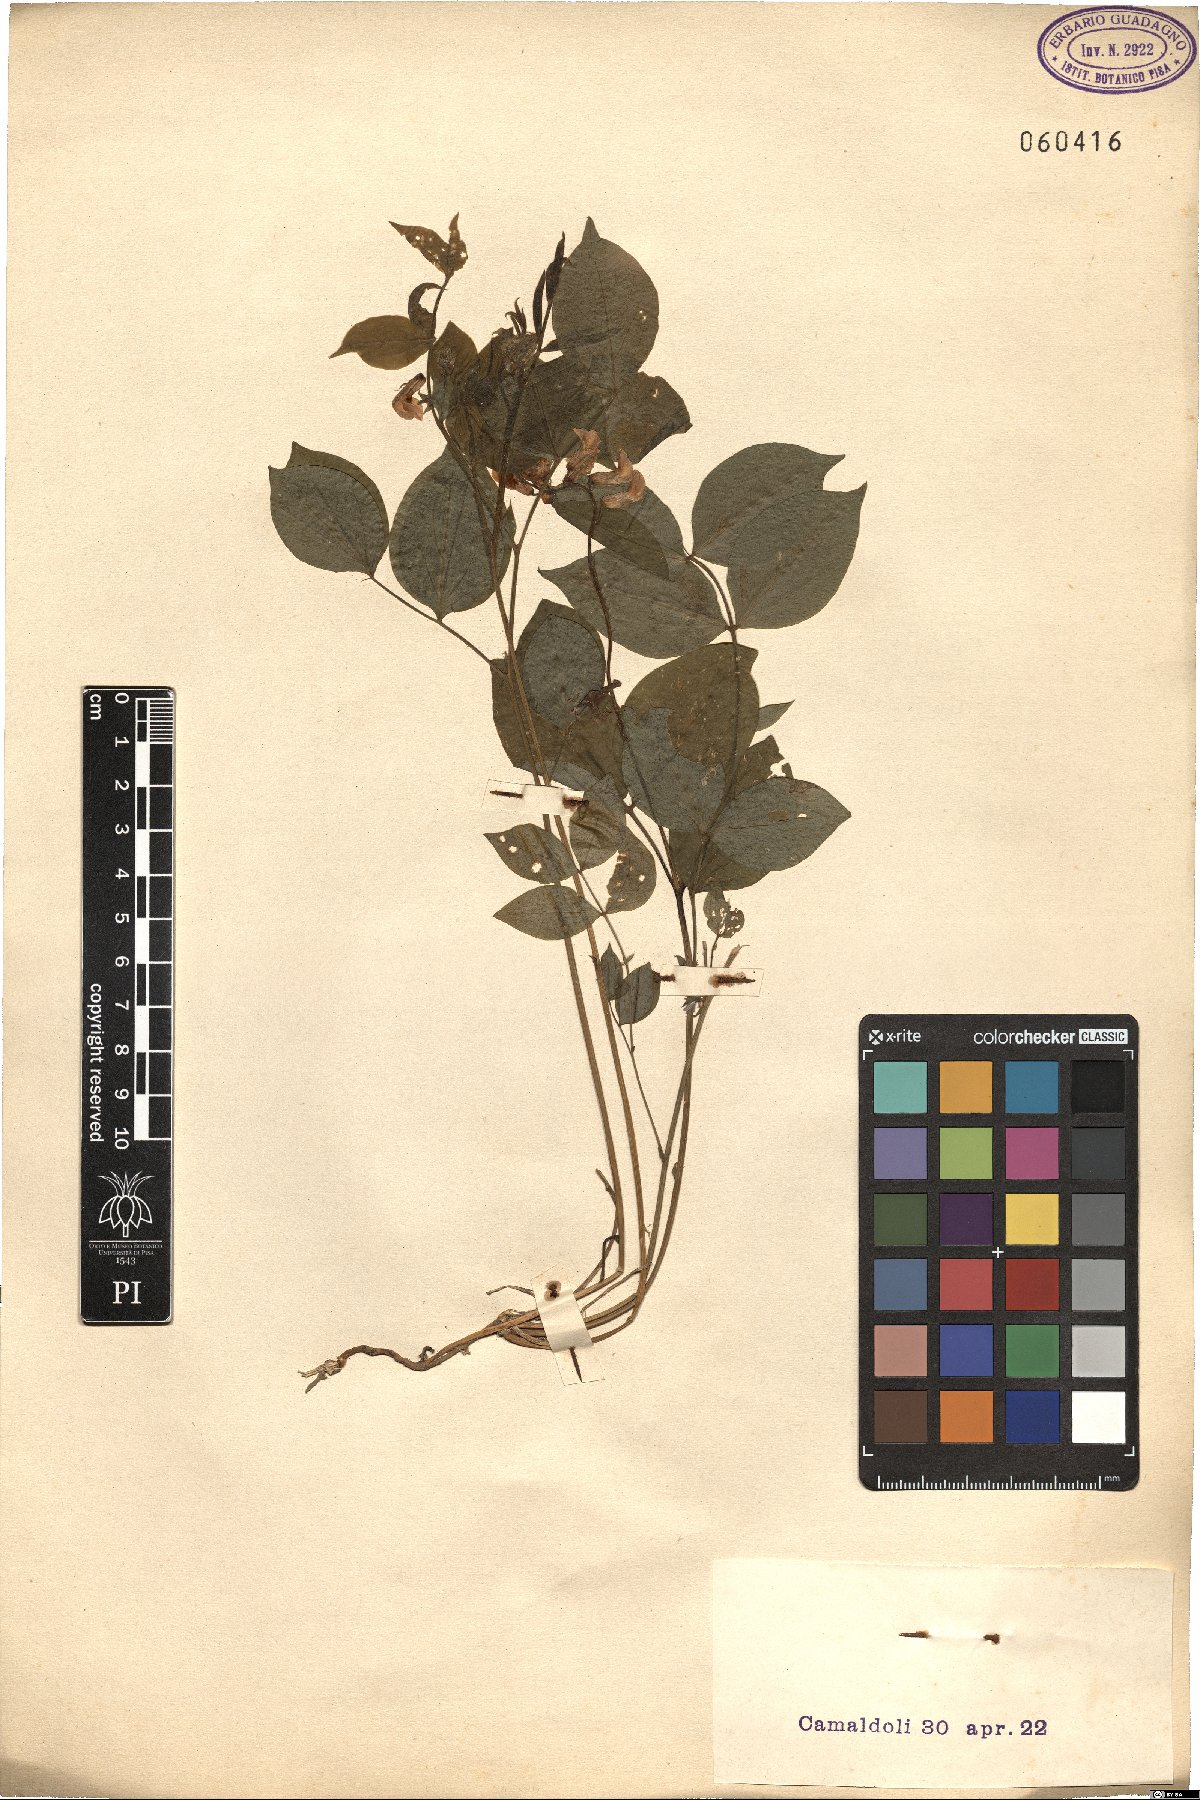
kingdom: Plantae
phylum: Tracheophyta
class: Magnoliopsida
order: Fabales
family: Fabaceae
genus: Lathyrus
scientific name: Lathyrus venetus
